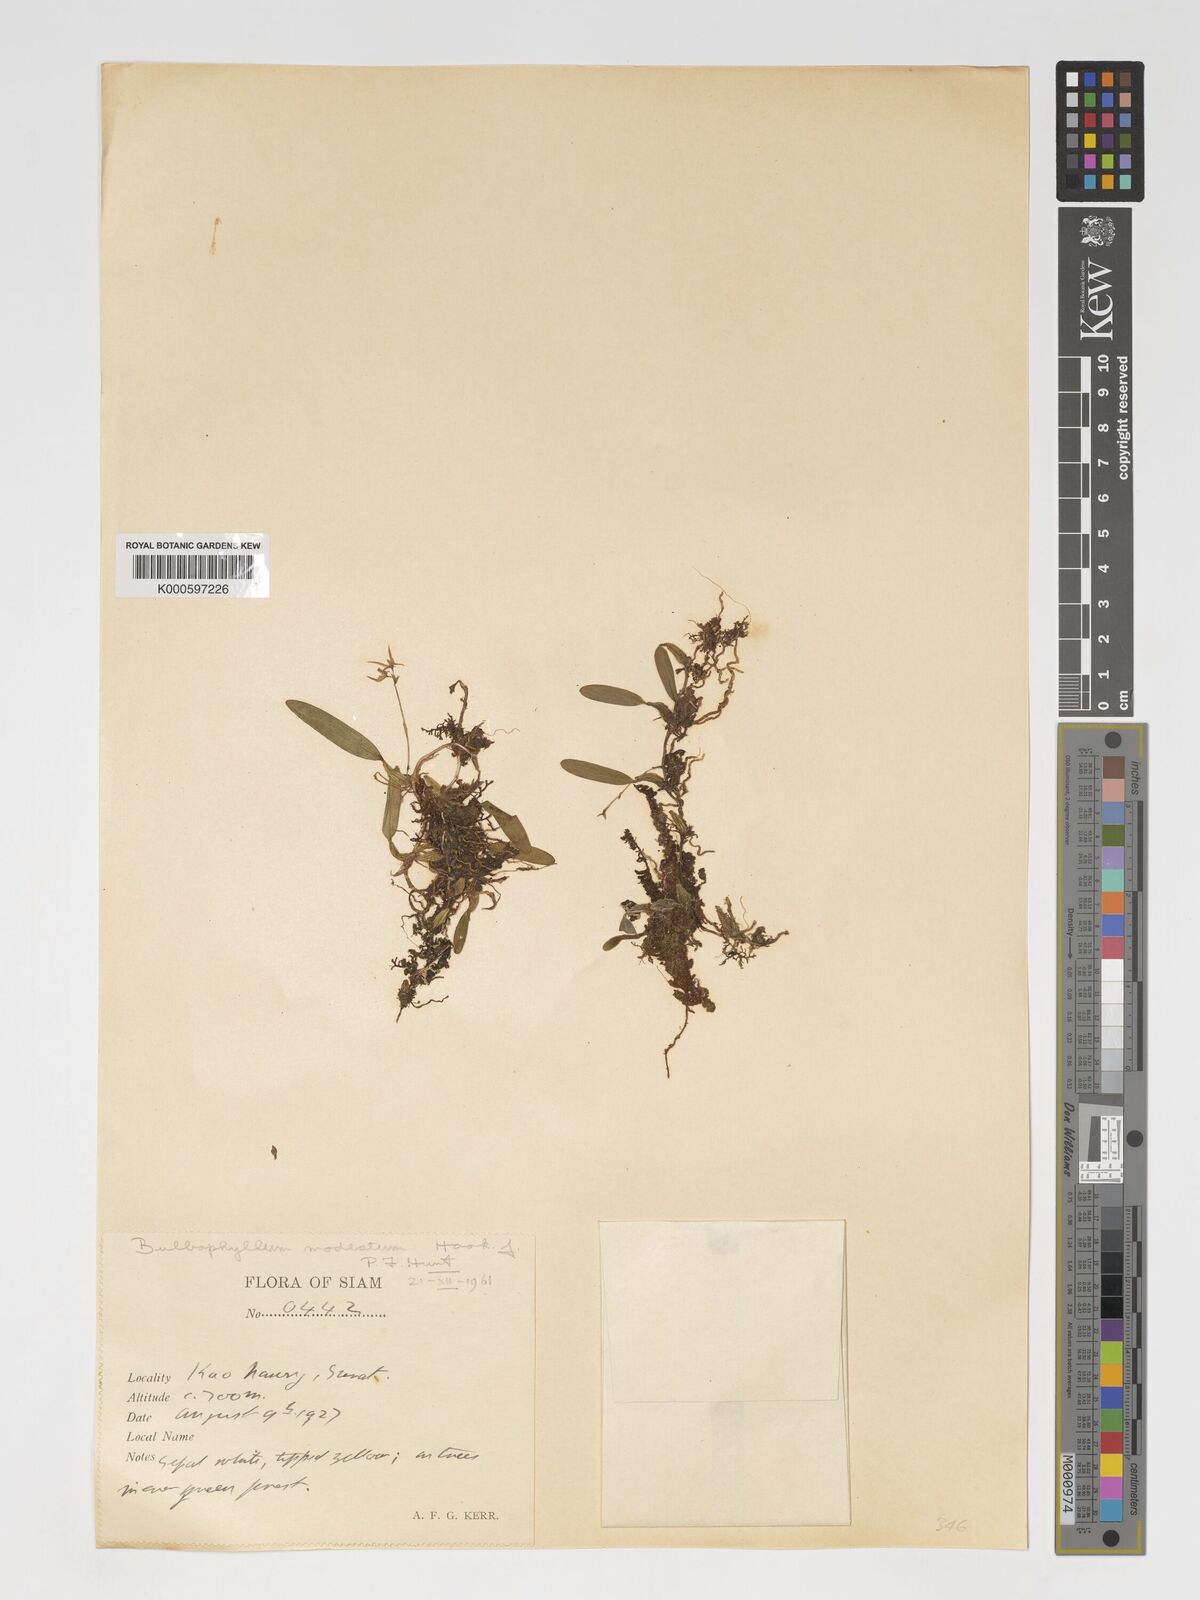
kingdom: Plantae
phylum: Tracheophyta
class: Liliopsida
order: Asparagales
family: Orchidaceae
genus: Bulbophyllum
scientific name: Bulbophyllum sulcatum
